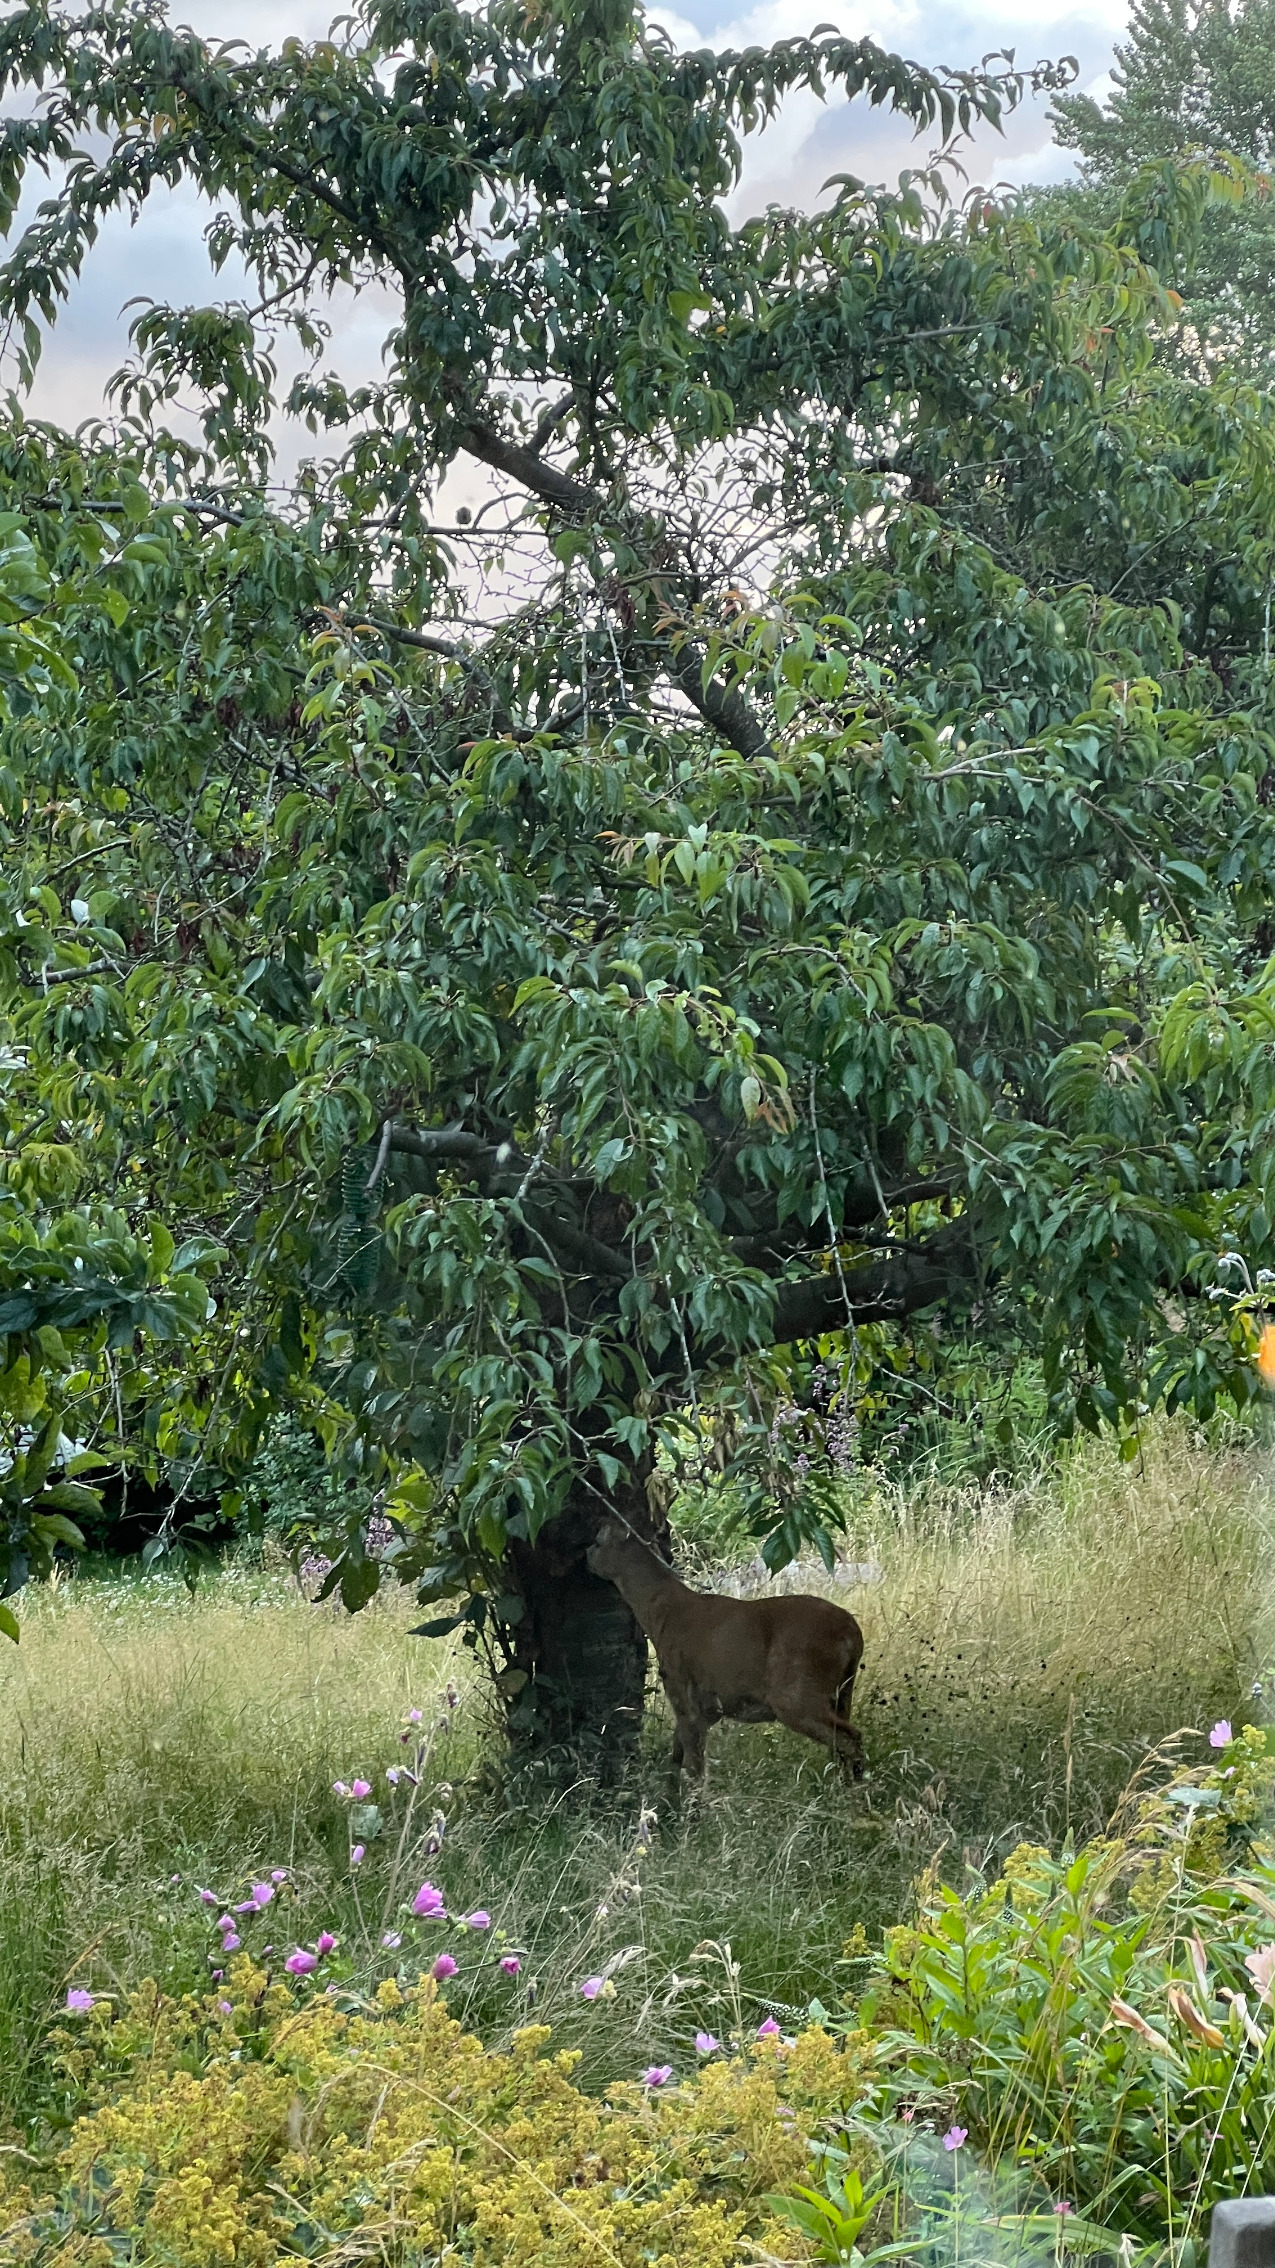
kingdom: Animalia
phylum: Chordata
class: Mammalia
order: Artiodactyla
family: Cervidae
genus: Capreolus
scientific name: Capreolus capreolus
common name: Rådyr
